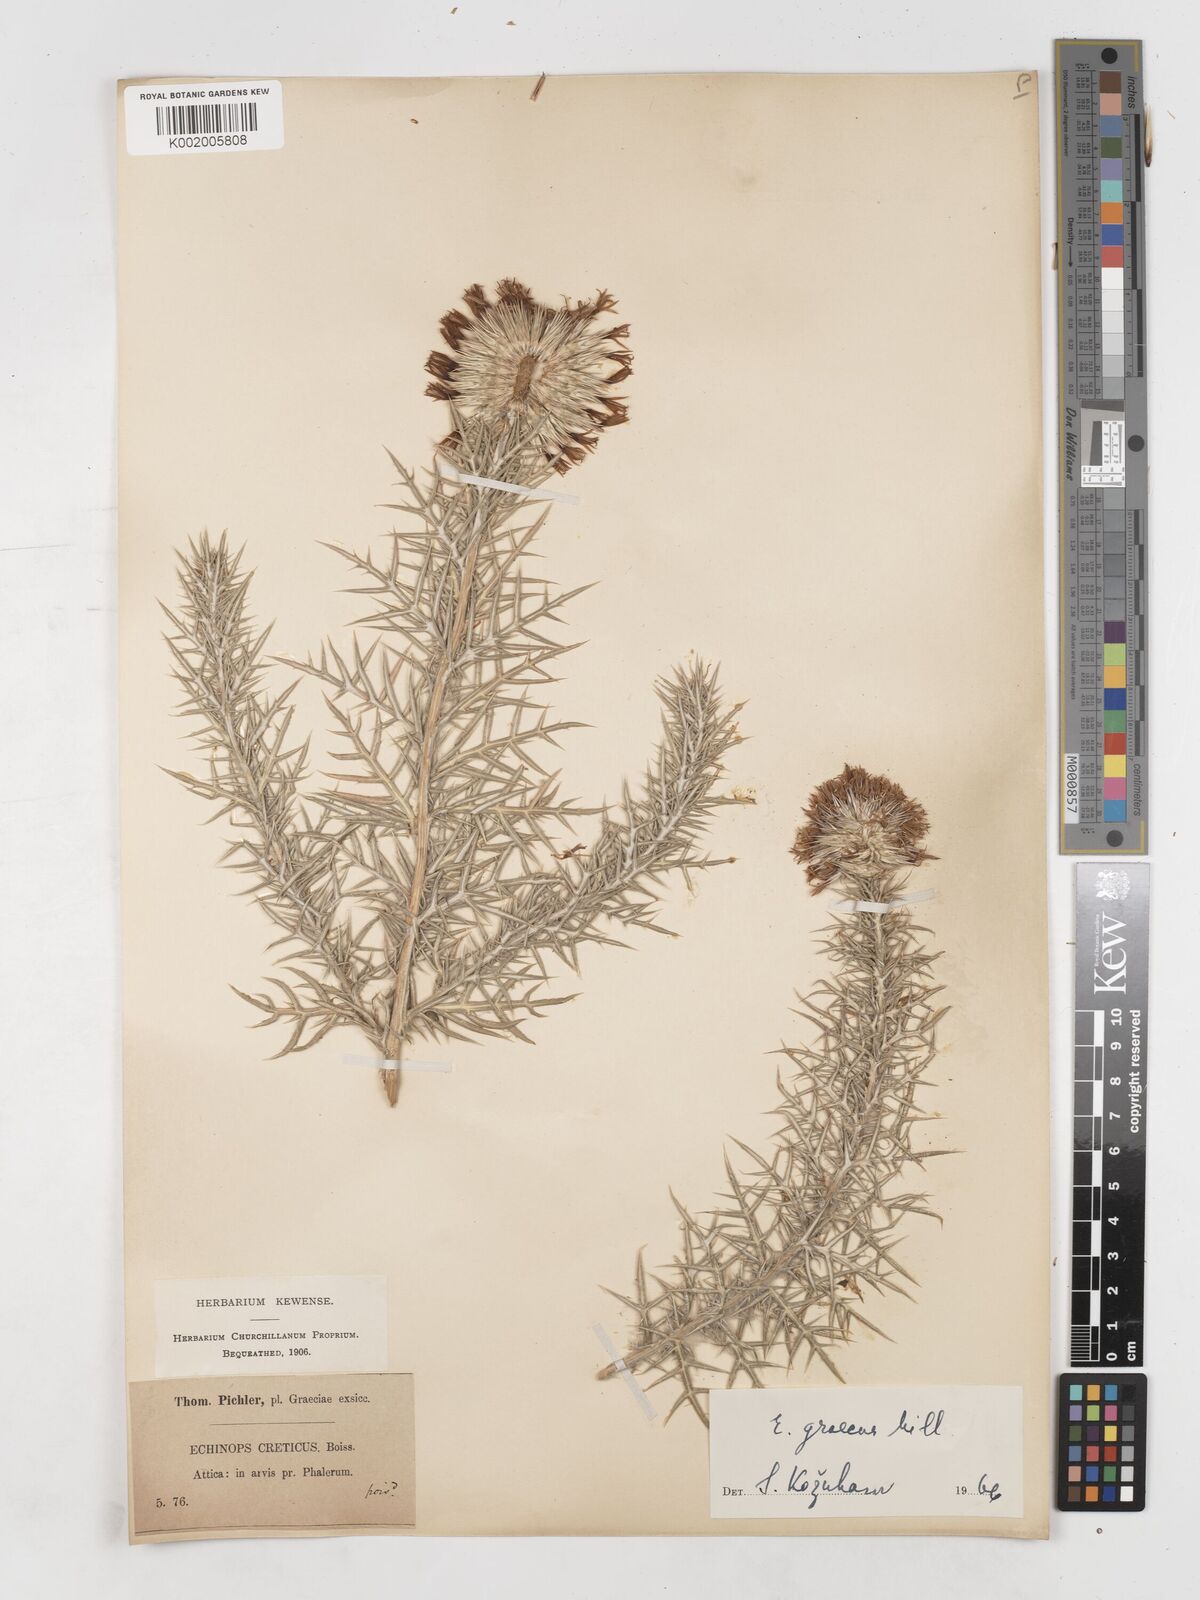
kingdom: Plantae
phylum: Tracheophyta
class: Magnoliopsida
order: Asterales
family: Asteraceae
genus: Echinops
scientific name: Echinops graecus
